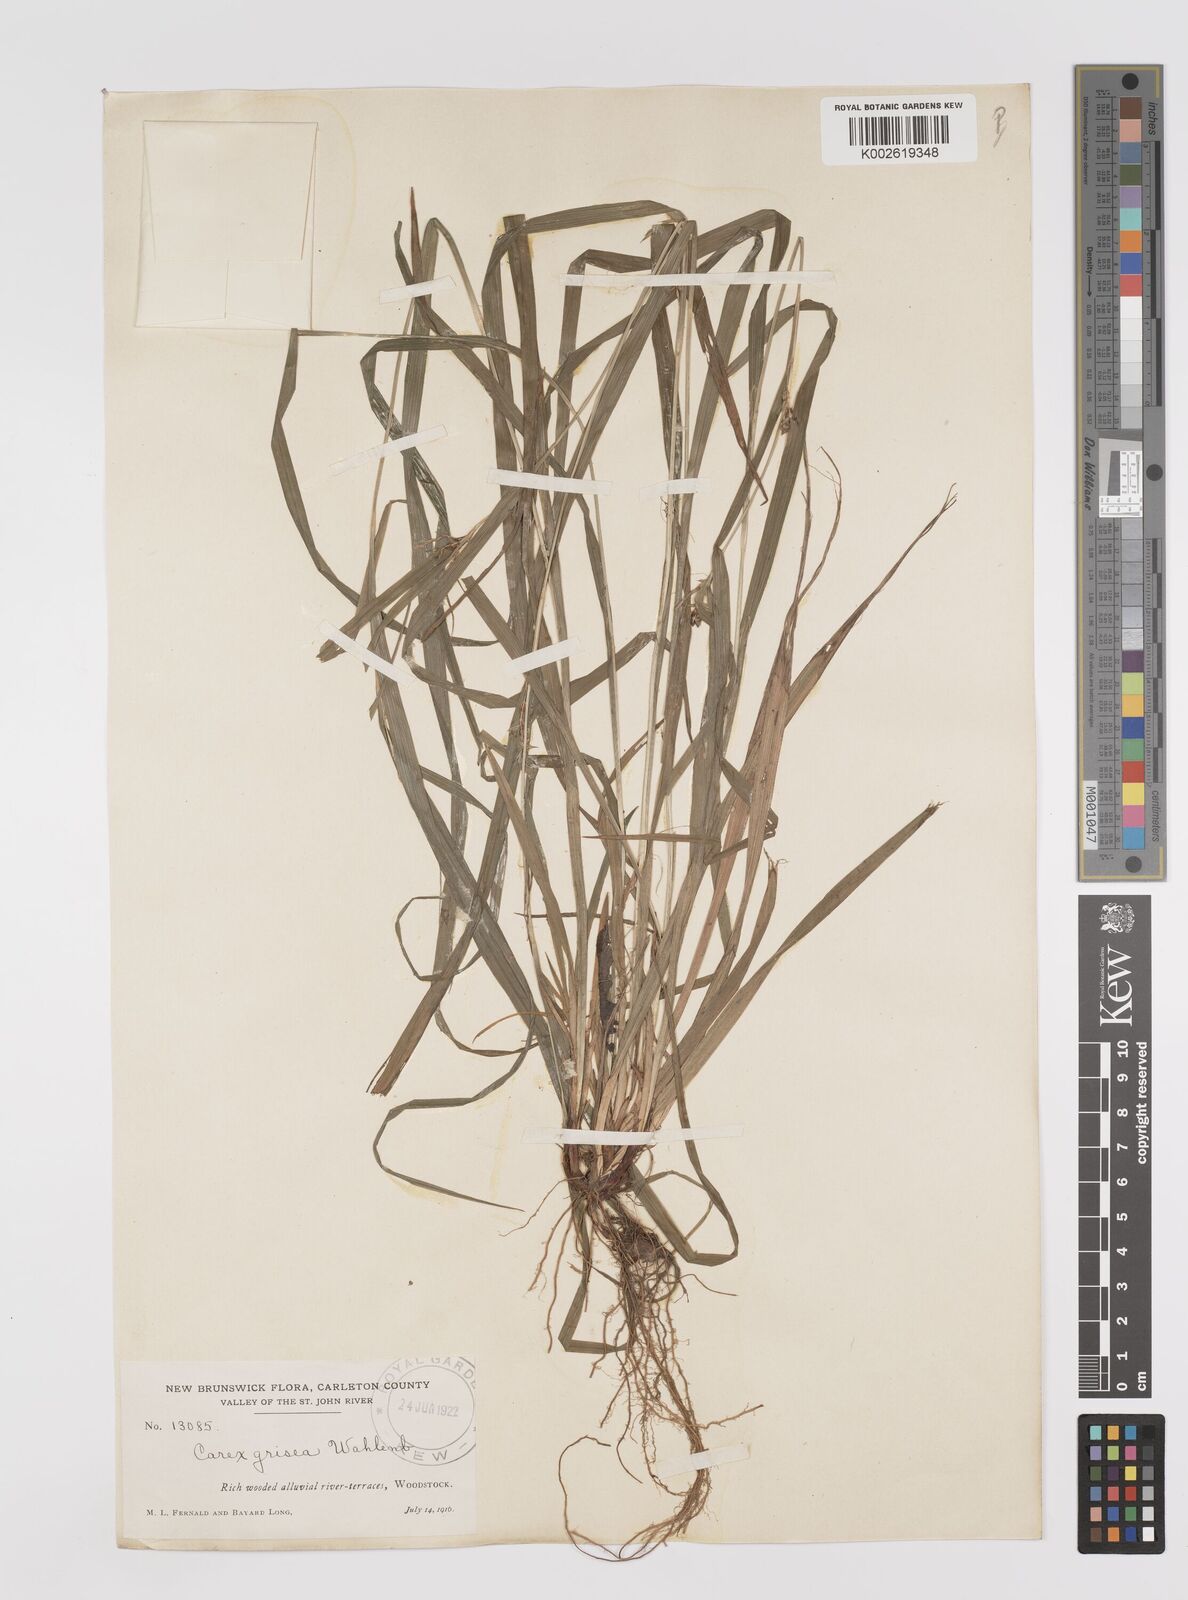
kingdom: Plantae
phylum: Tracheophyta
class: Liliopsida
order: Poales
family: Cyperaceae
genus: Carex
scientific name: Carex grisea
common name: Eastern narrow-leaved sedge
